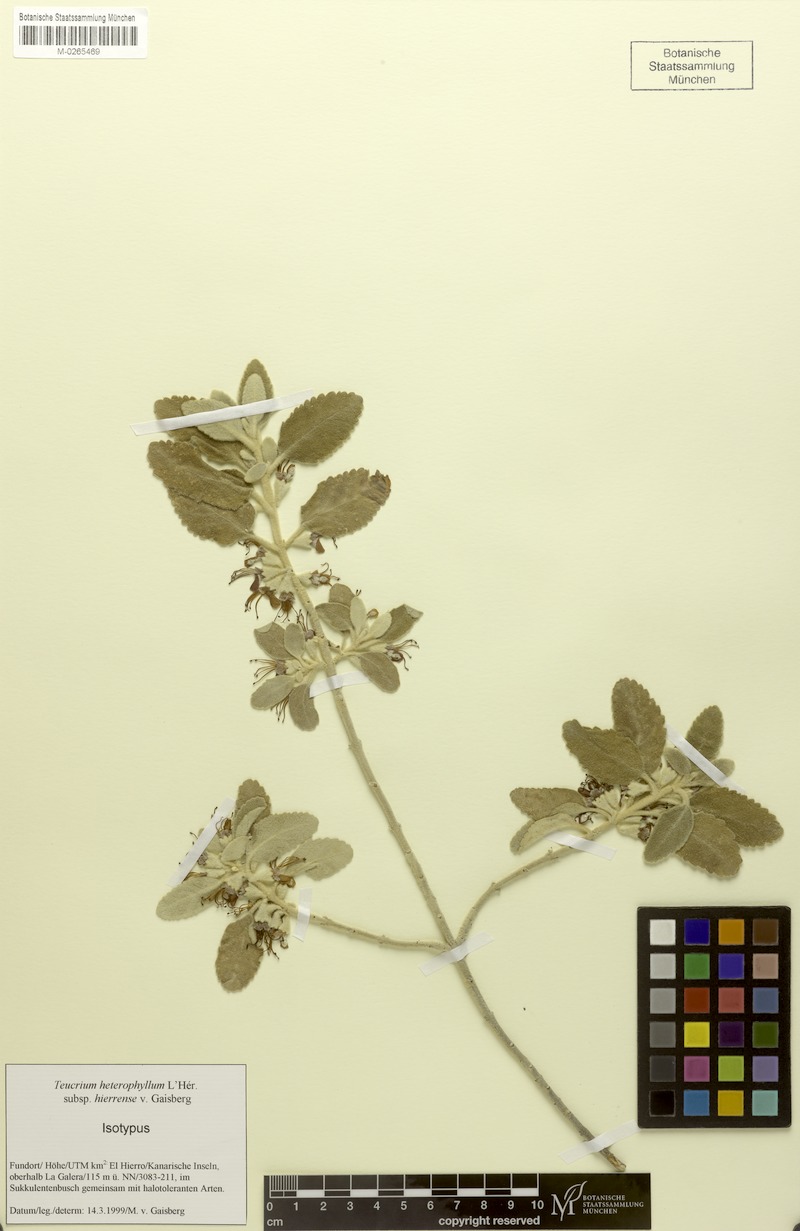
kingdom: Plantae
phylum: Tracheophyta
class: Magnoliopsida
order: Lamiales
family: Lamiaceae
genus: Teucrium
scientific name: Teucrium heterophyllum
